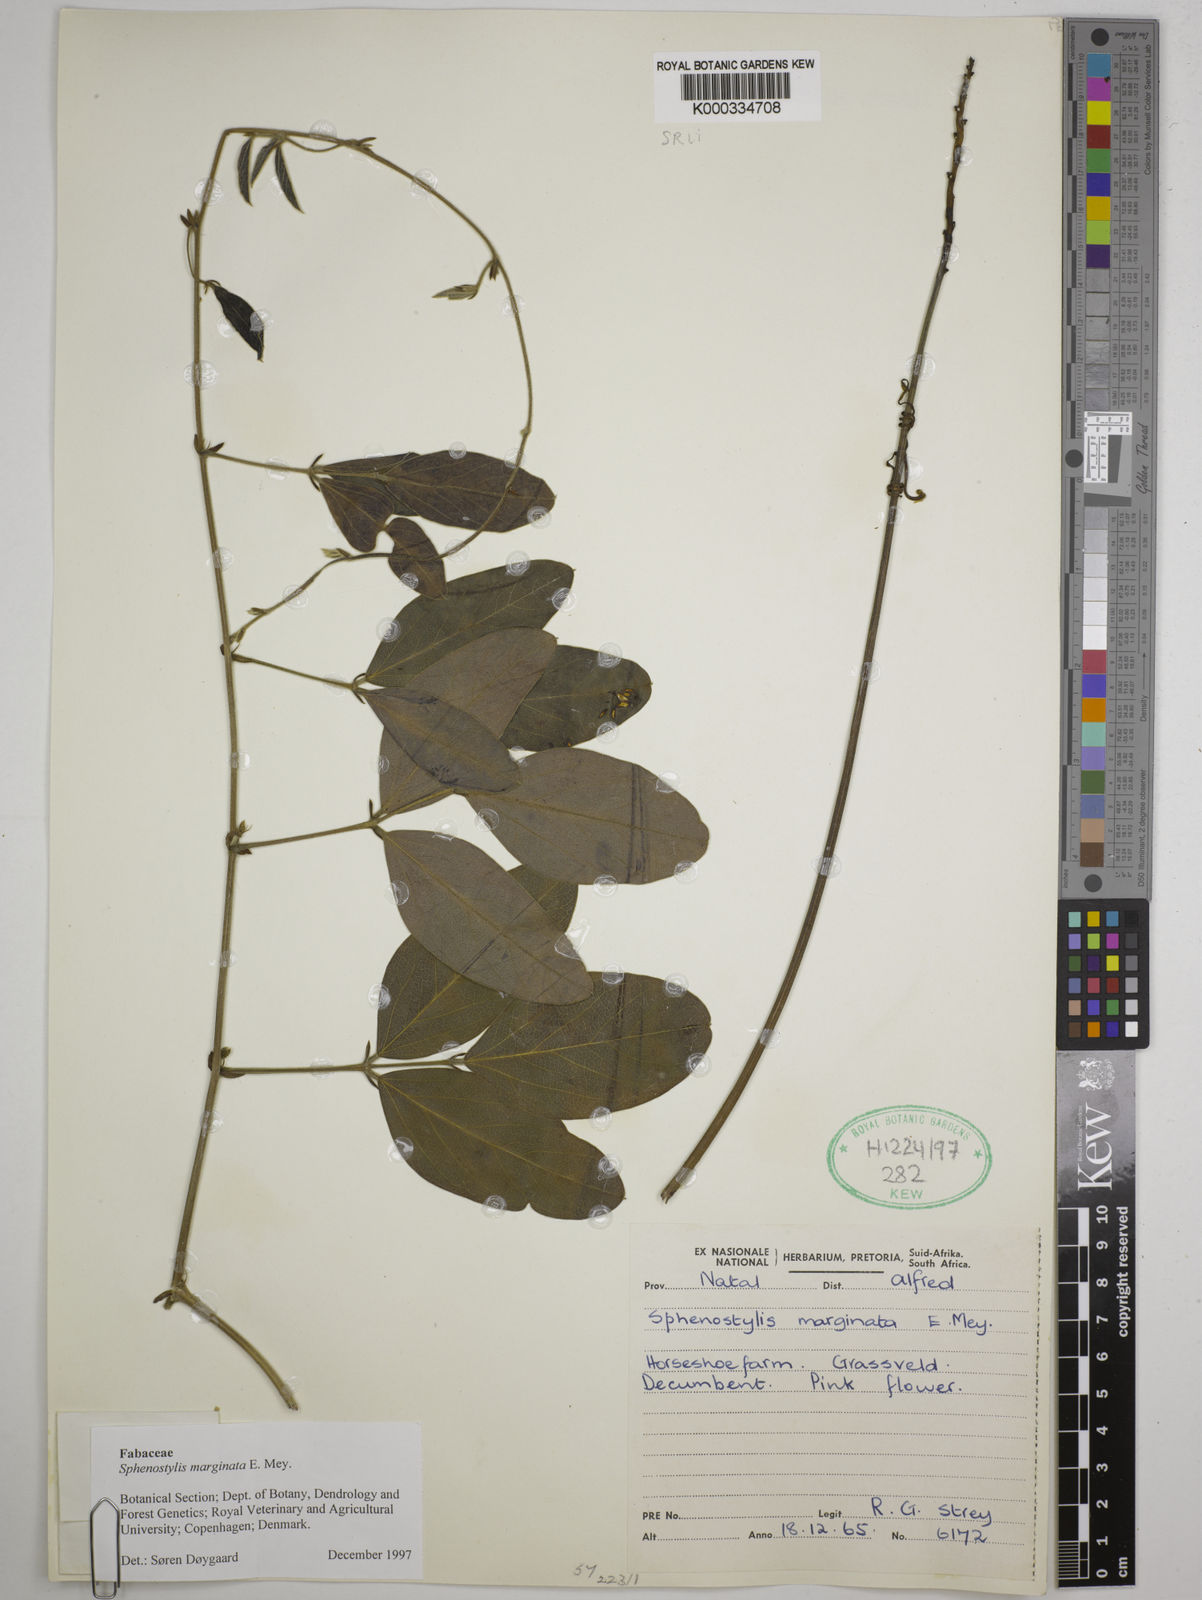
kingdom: Plantae
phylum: Tracheophyta
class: Magnoliopsida
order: Fabales
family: Fabaceae
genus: Sphenostylis
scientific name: Sphenostylis marginata
